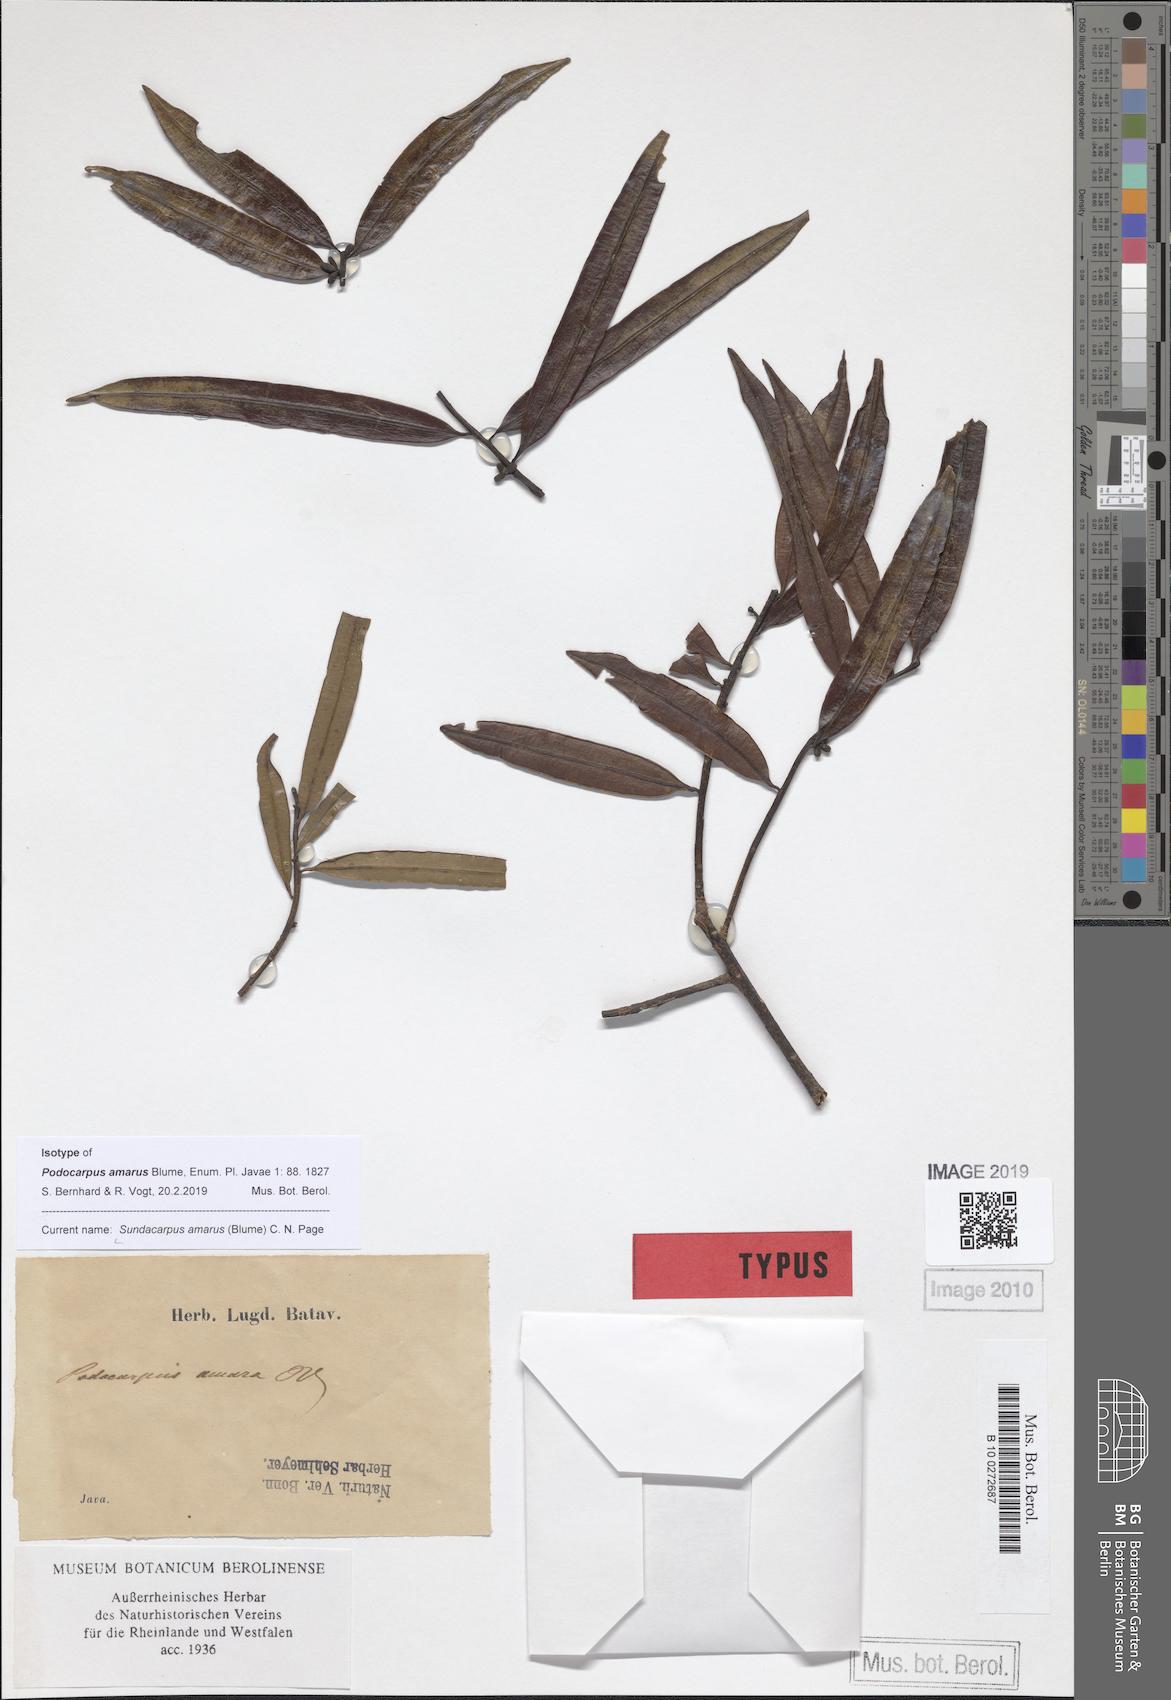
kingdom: Plantae
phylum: Tracheophyta
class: Pinopsida
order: Pinales
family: Podocarpaceae
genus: Sundacarpus
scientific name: Sundacarpus amarus
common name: Black pine
